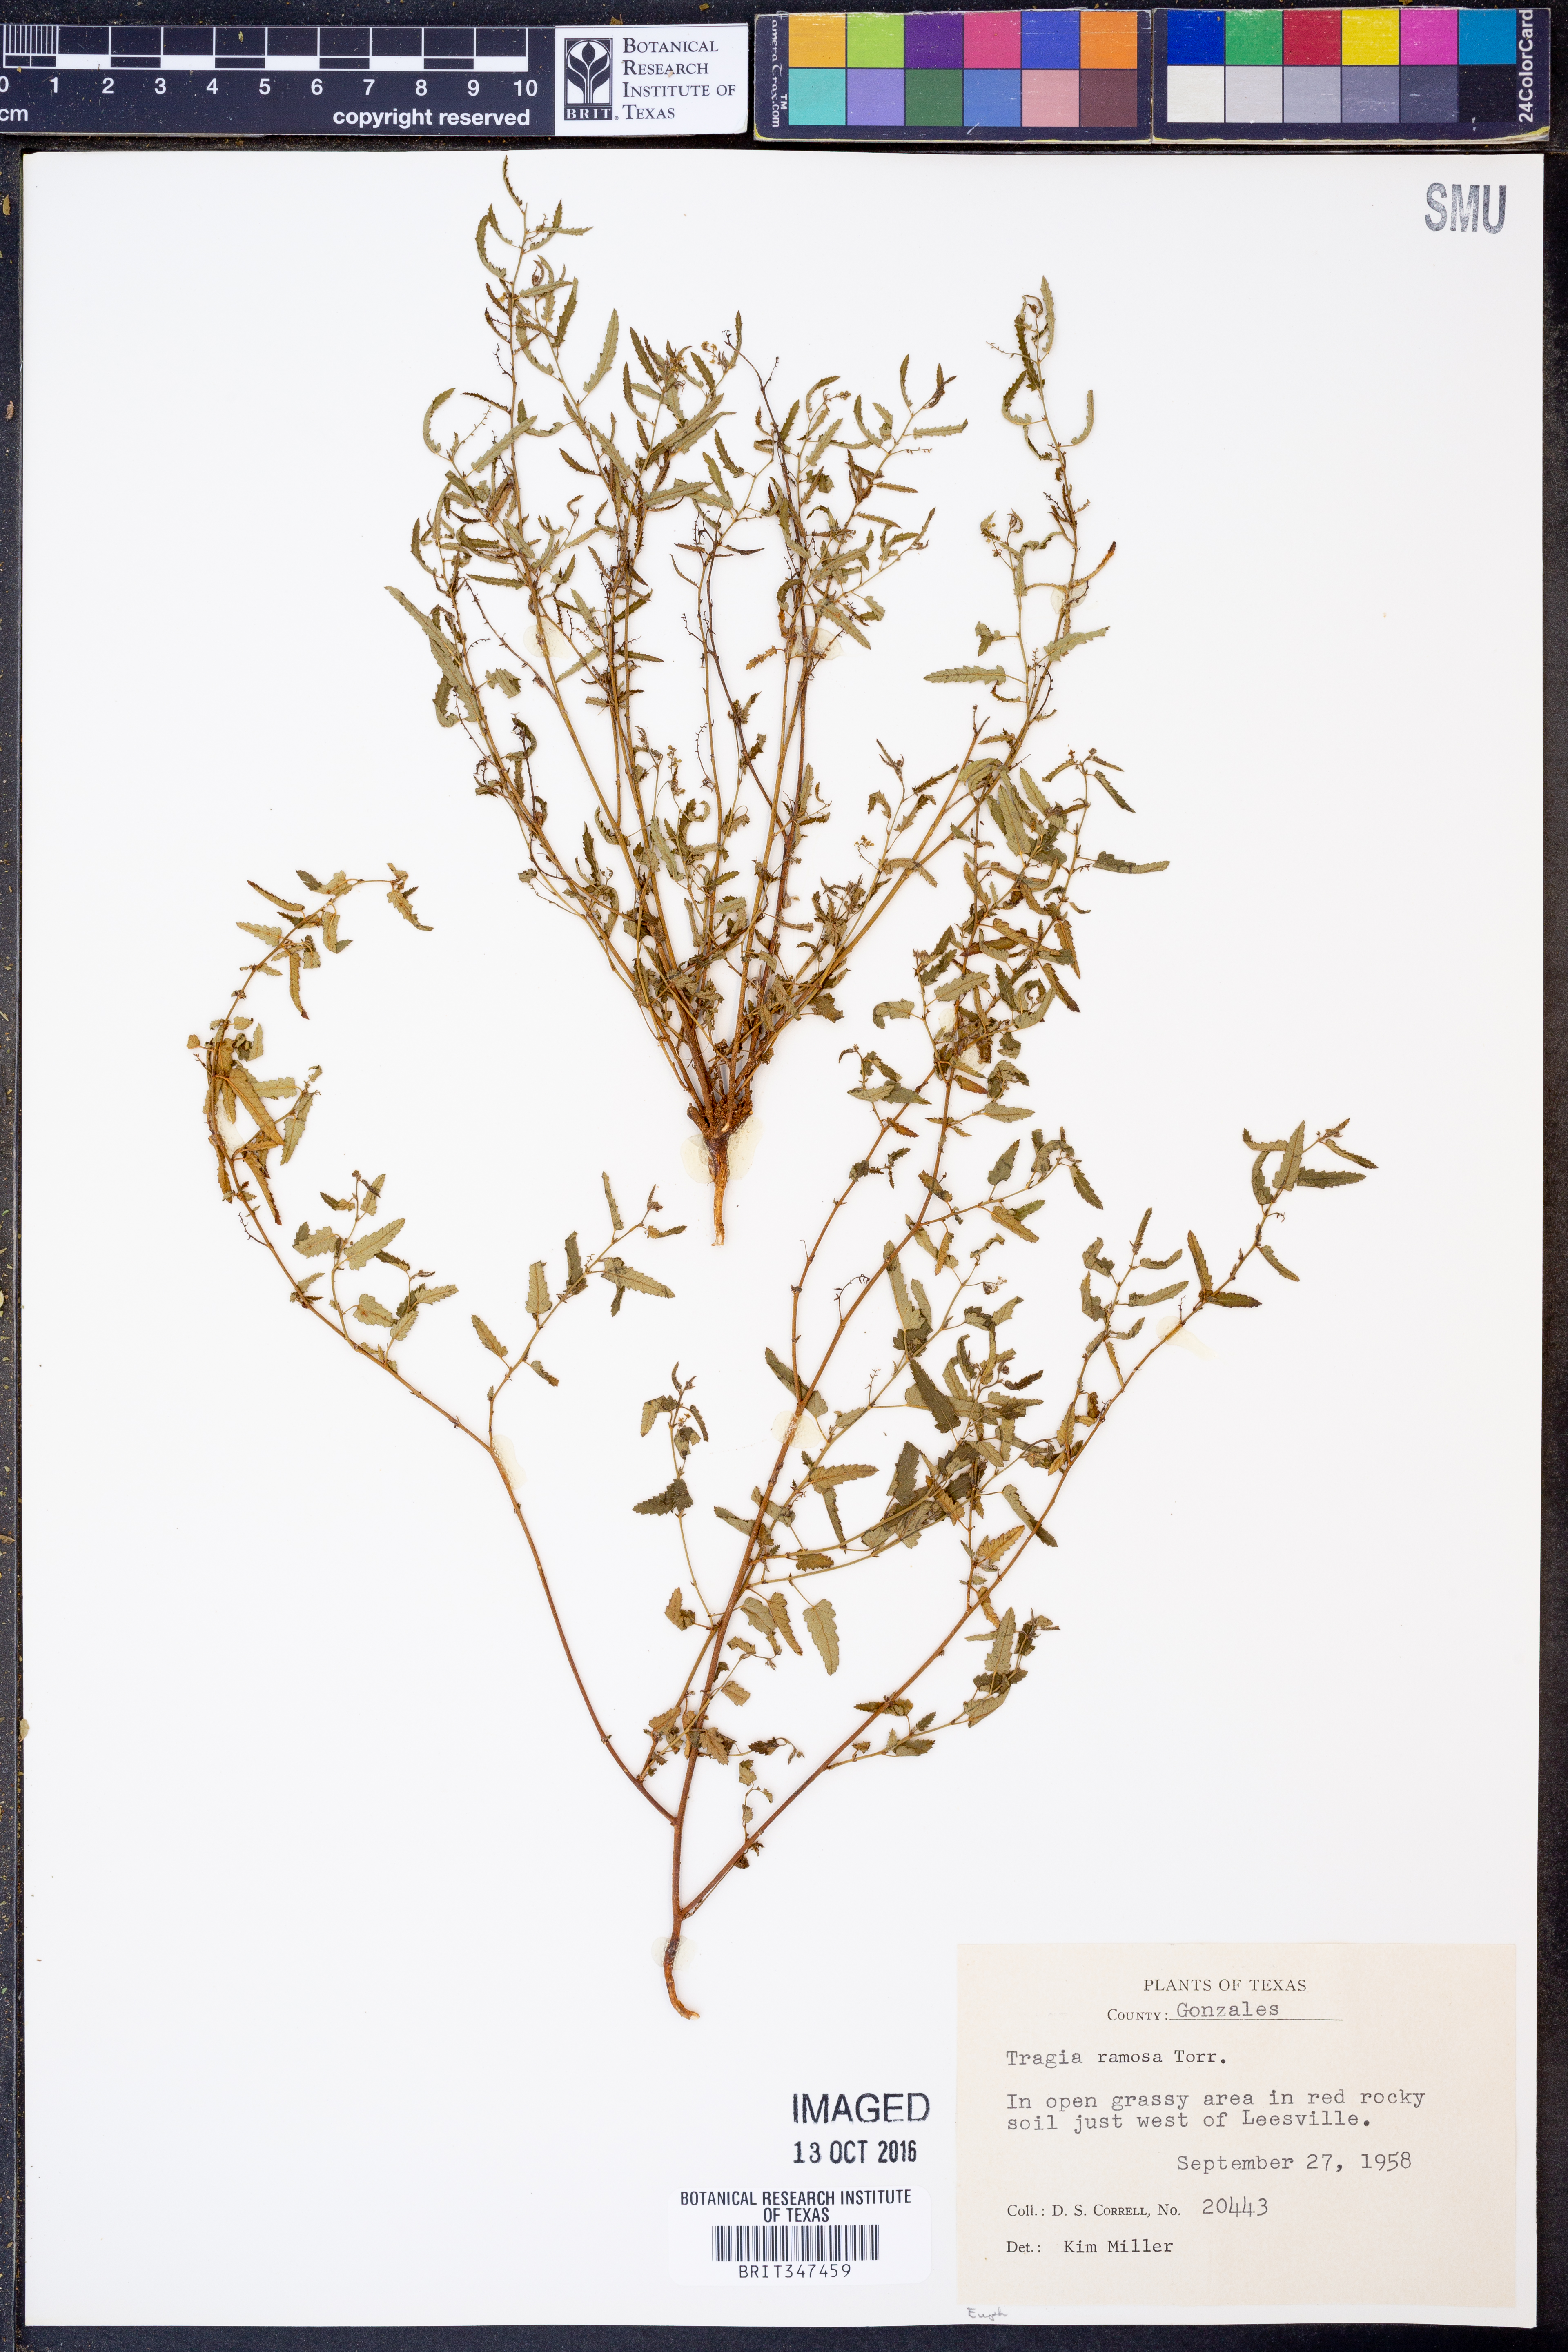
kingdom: Plantae
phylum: Tracheophyta
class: Magnoliopsida
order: Malpighiales
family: Euphorbiaceae
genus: Tragia
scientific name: Tragia ramosa
